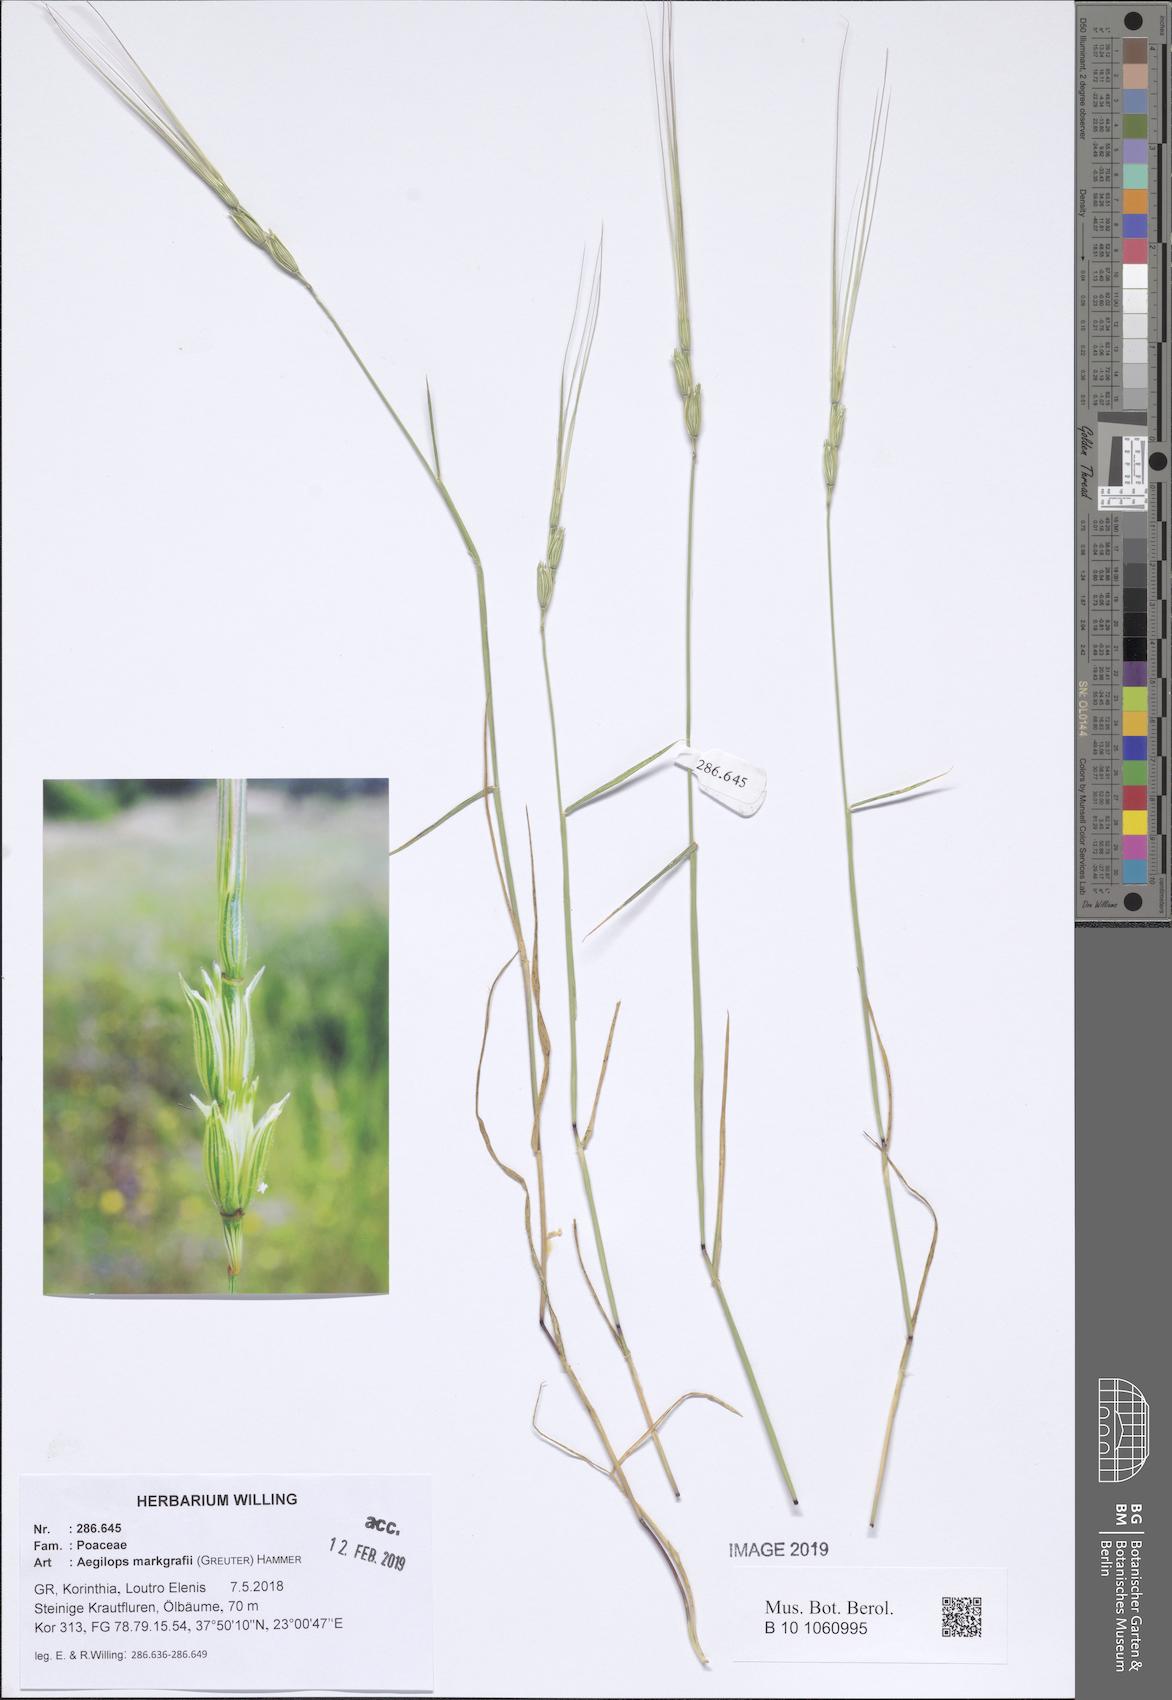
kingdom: Plantae
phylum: Tracheophyta
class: Liliopsida
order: Poales
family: Poaceae
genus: Aegilops
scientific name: Aegilops caudata
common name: Cretan hard-grass
